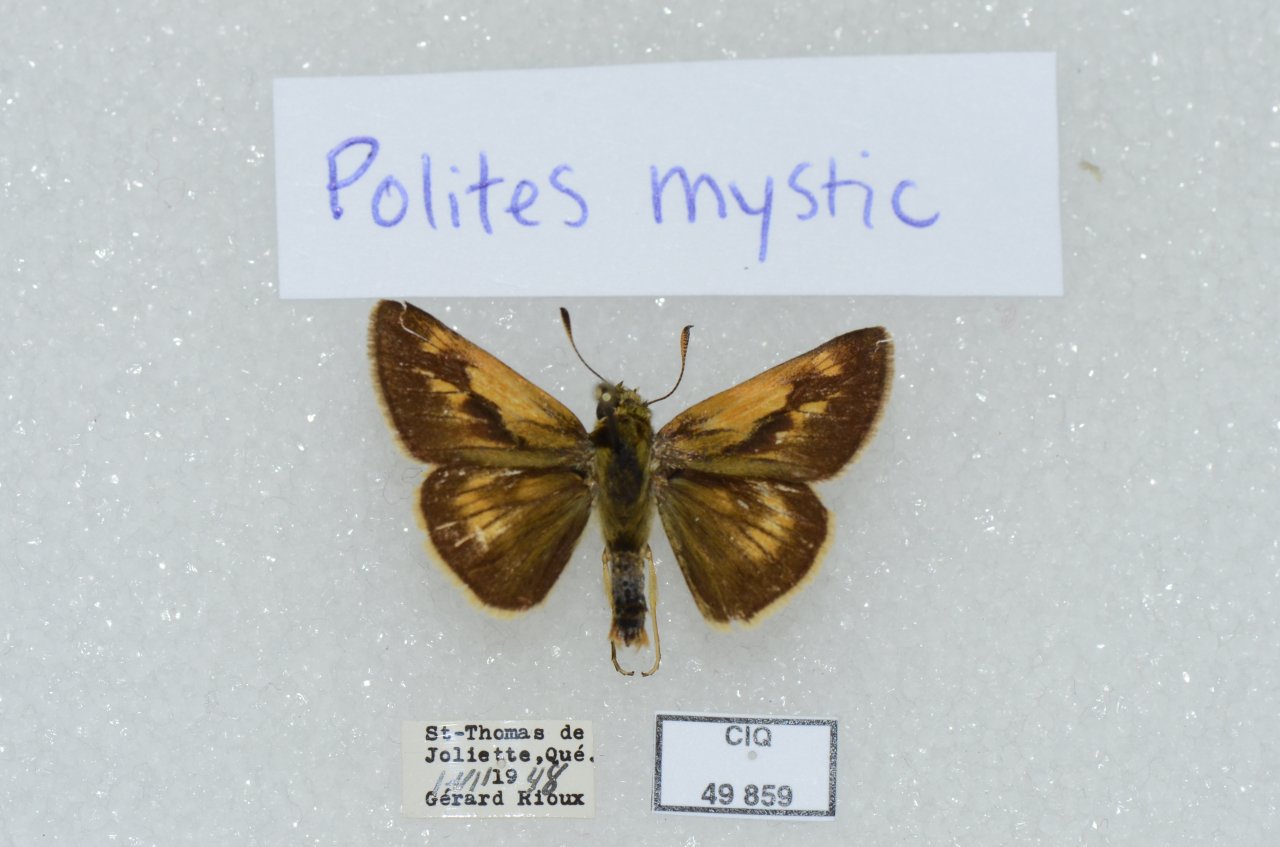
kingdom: Animalia
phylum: Arthropoda
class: Insecta
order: Lepidoptera
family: Hesperiidae
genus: Polites
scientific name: Polites
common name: Long Dash Skipper
